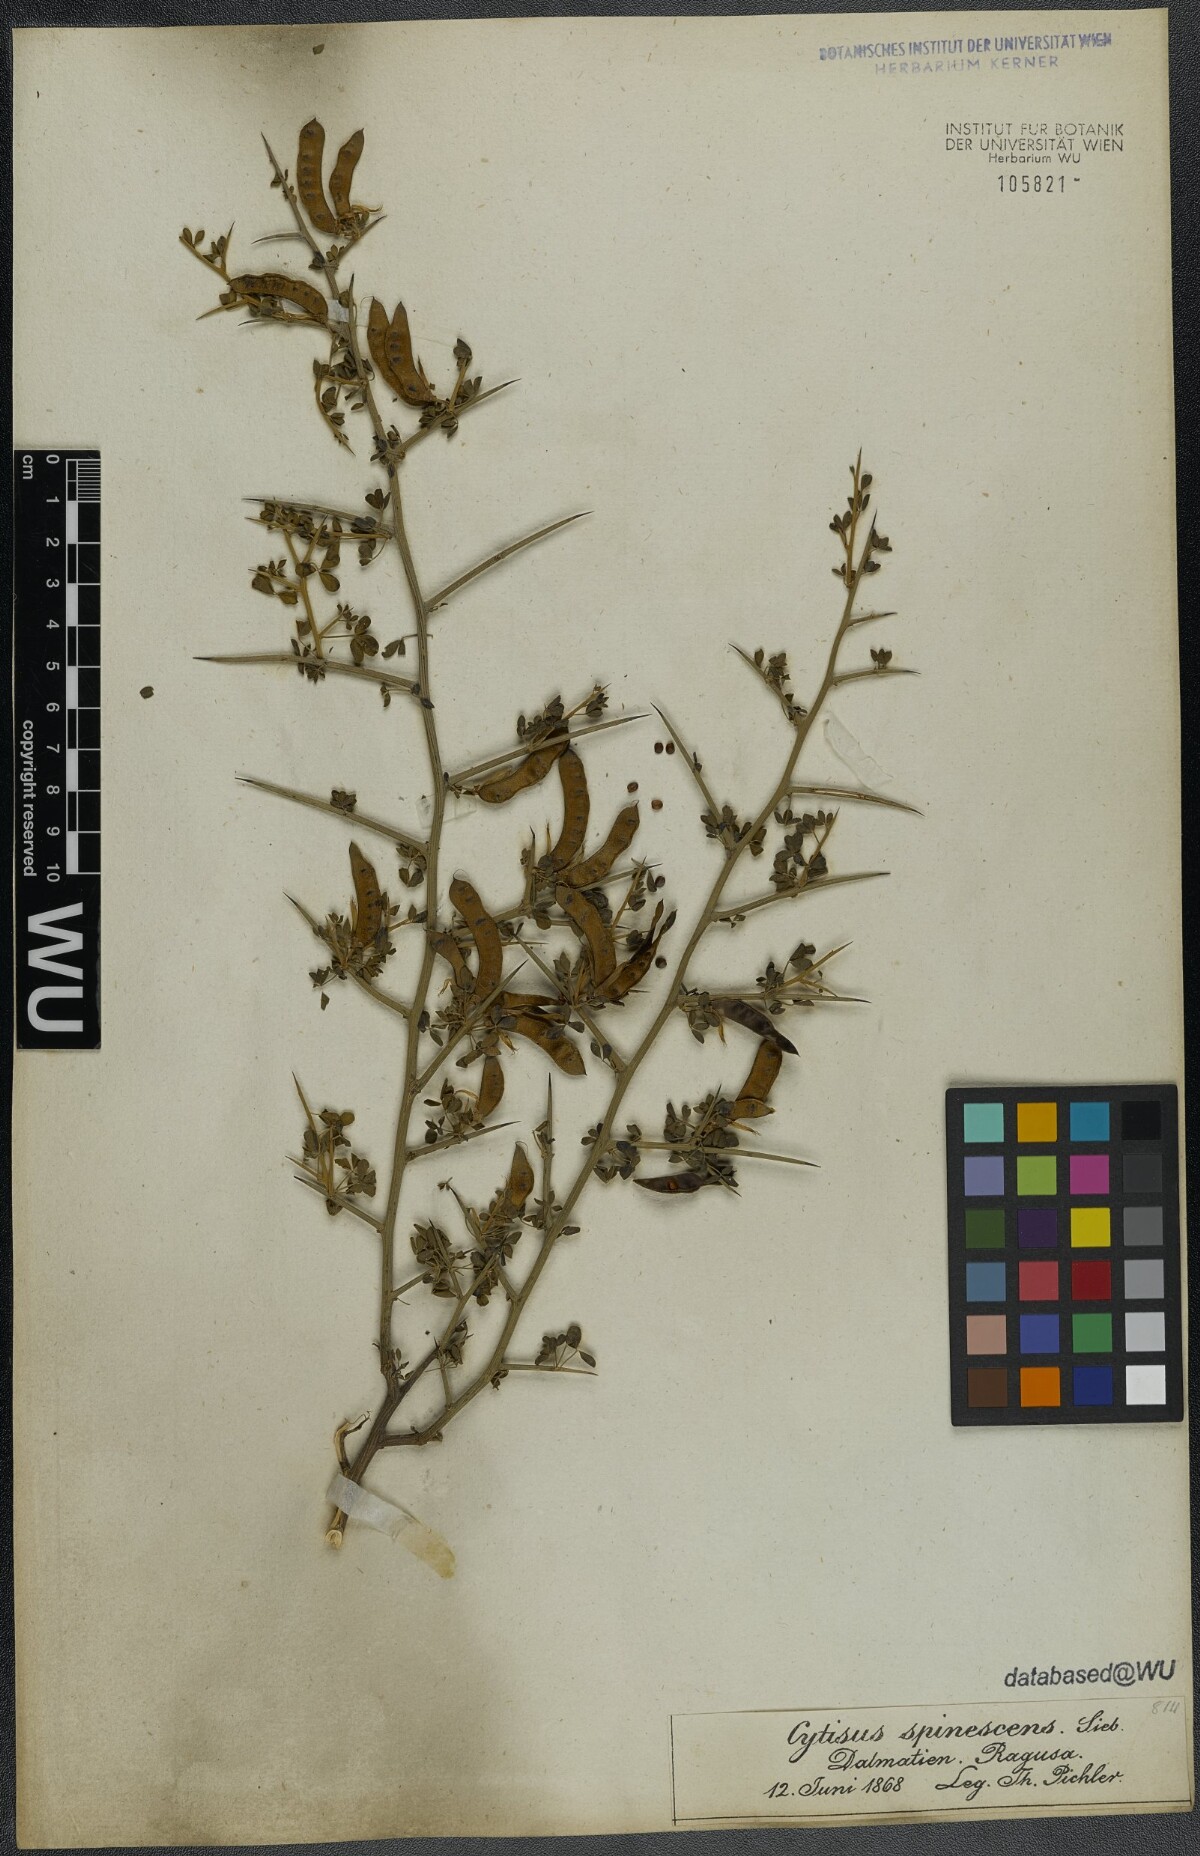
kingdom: Plantae
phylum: Tracheophyta
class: Magnoliopsida
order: Fabales
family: Fabaceae
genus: Chamaecytisus
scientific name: Chamaecytisus spinescens
